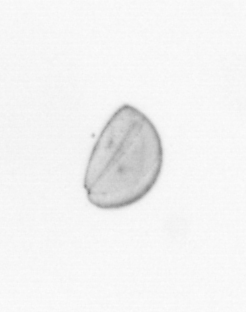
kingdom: Chromista
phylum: Ochrophyta
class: Bacillariophyceae
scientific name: Bacillariophyceae
